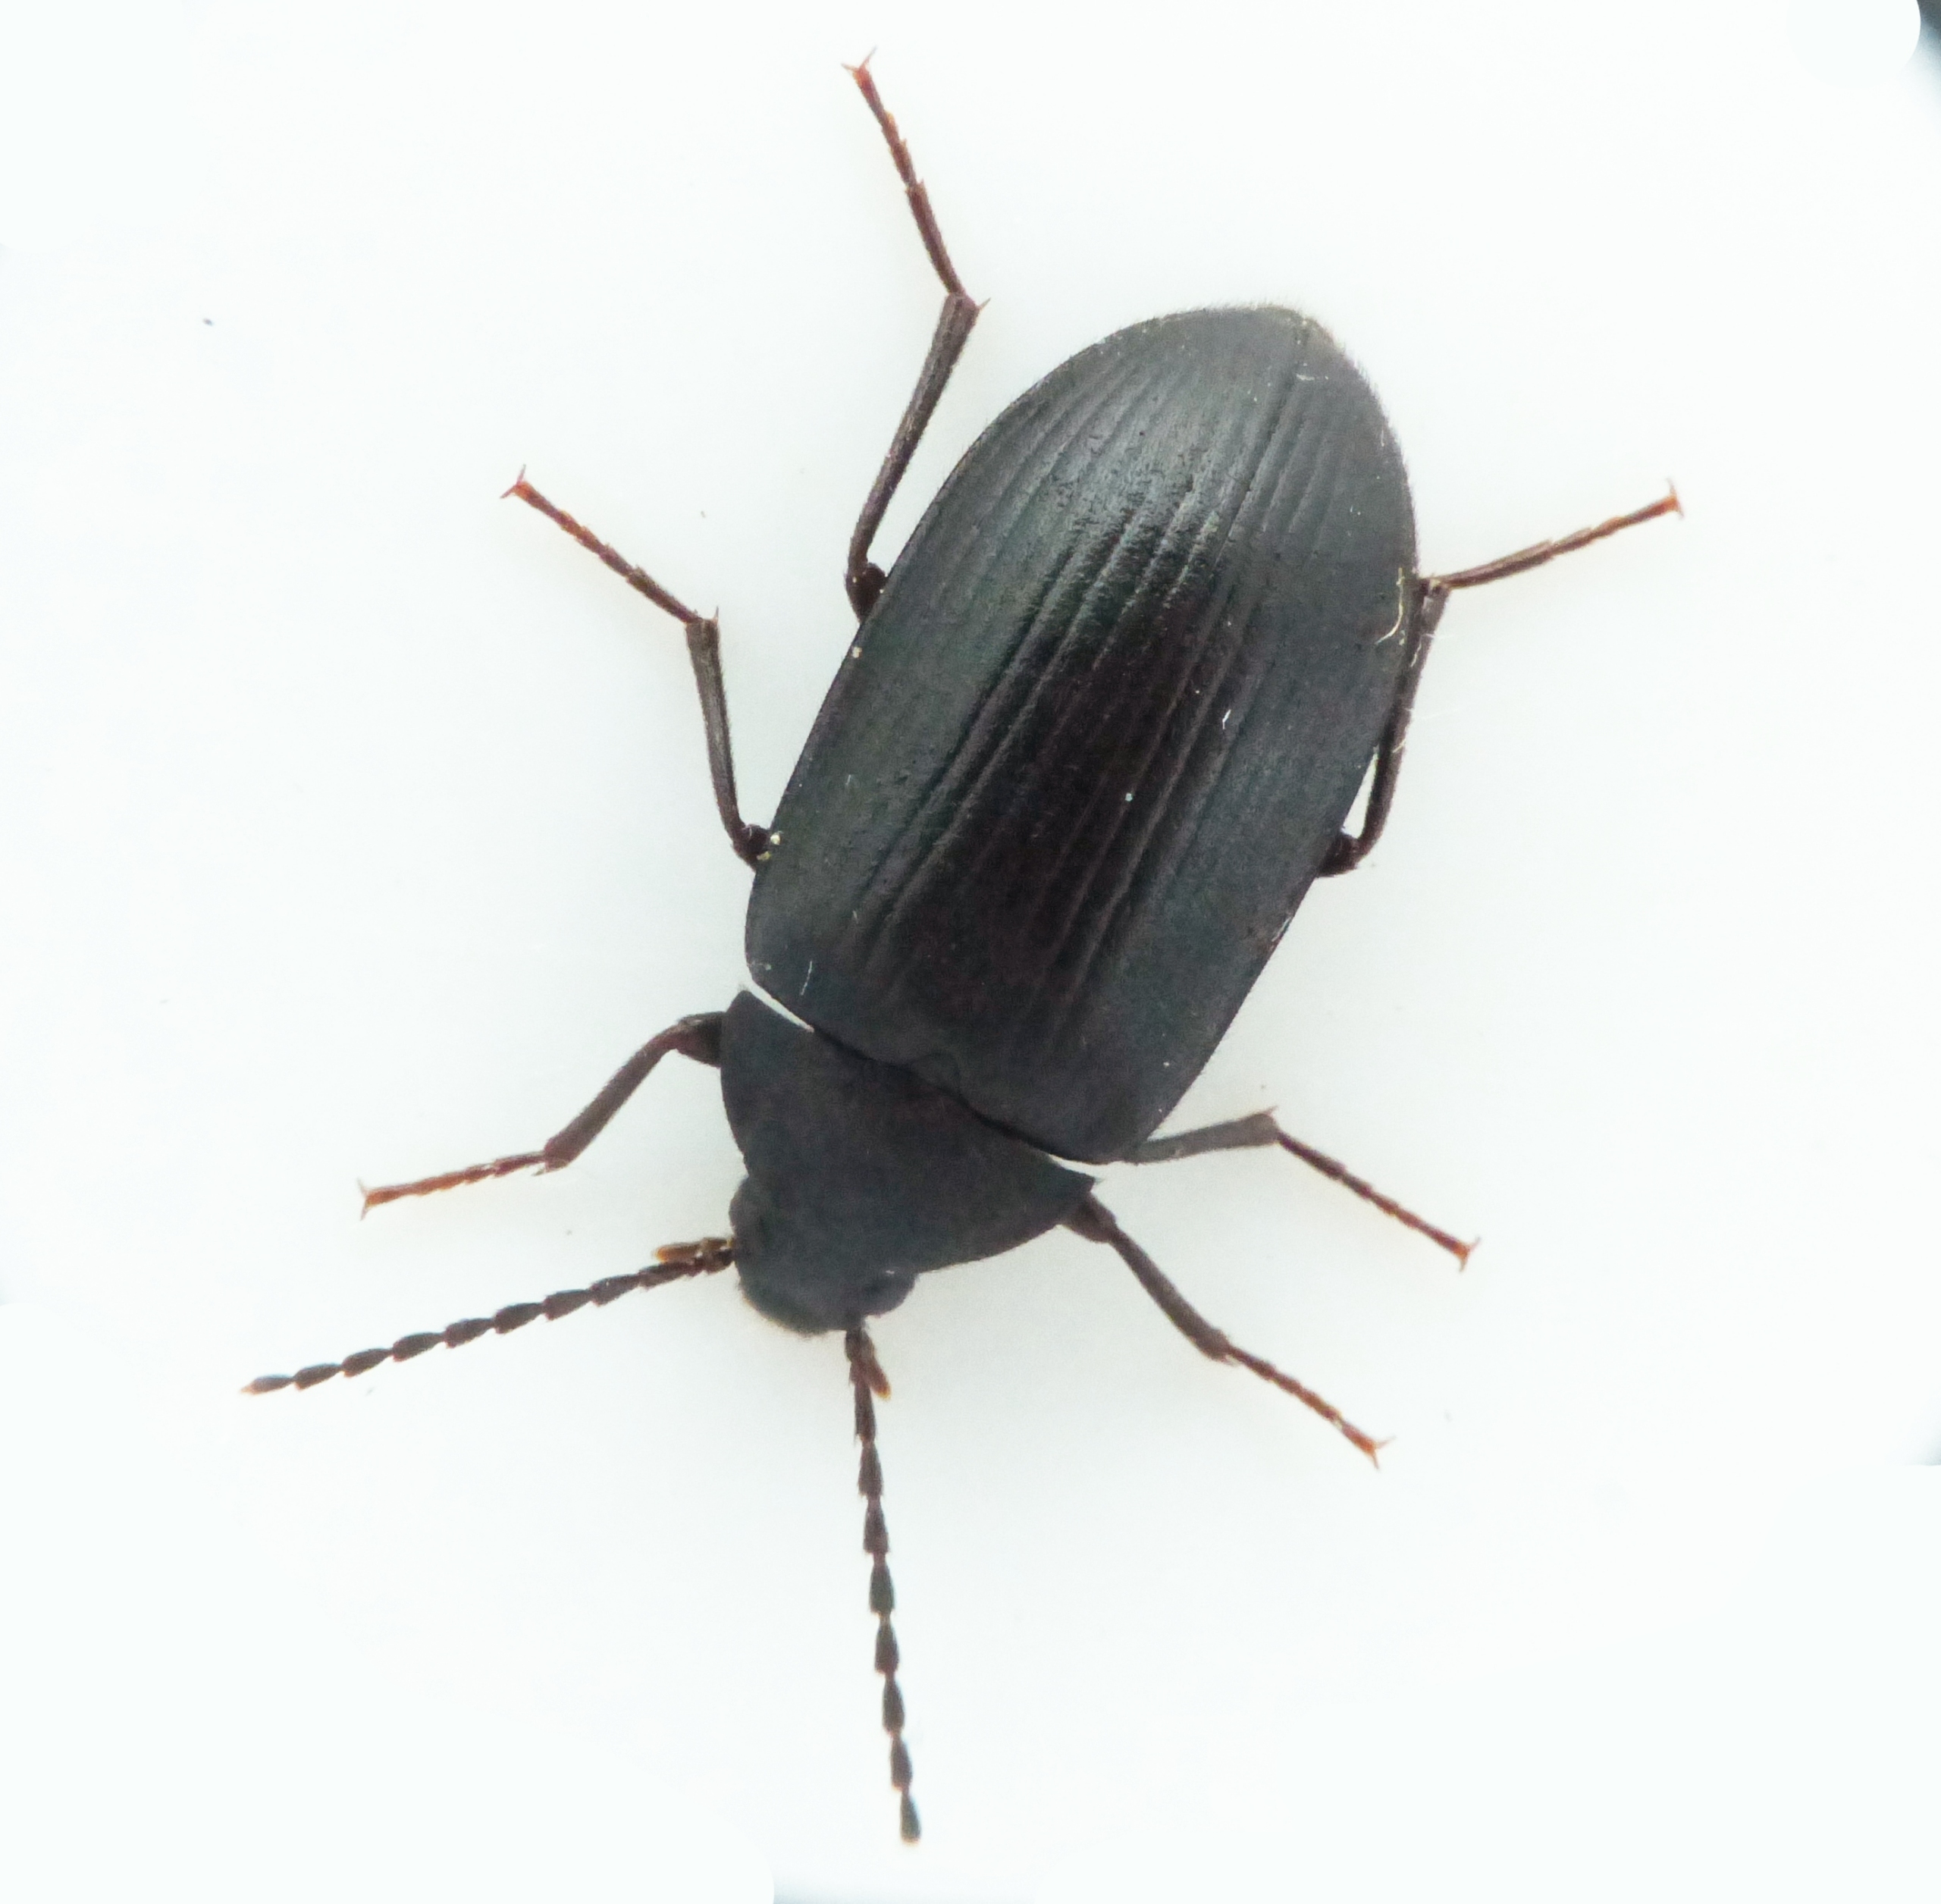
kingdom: Animalia
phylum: Arthropoda
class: Insecta
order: Coleoptera
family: Tenebrionidae
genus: Prionychus
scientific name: Prionychus ater
